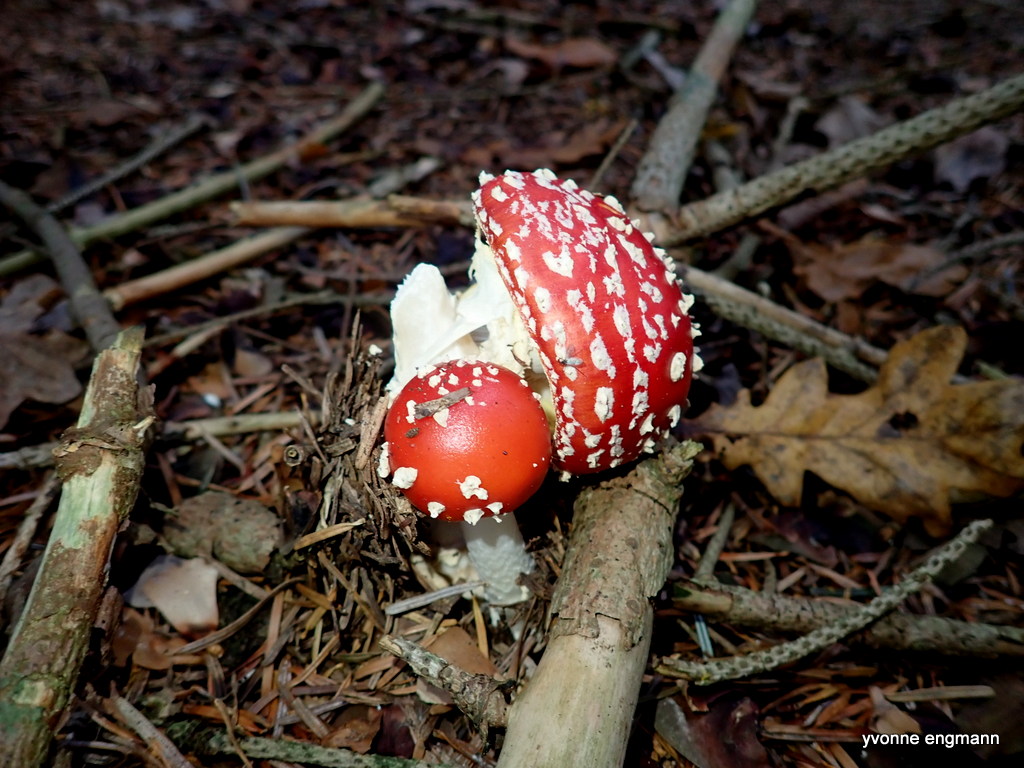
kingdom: Fungi
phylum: Basidiomycota
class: Agaricomycetes
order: Agaricales
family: Amanitaceae
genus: Amanita
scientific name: Amanita muscaria
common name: rød fluesvamp
